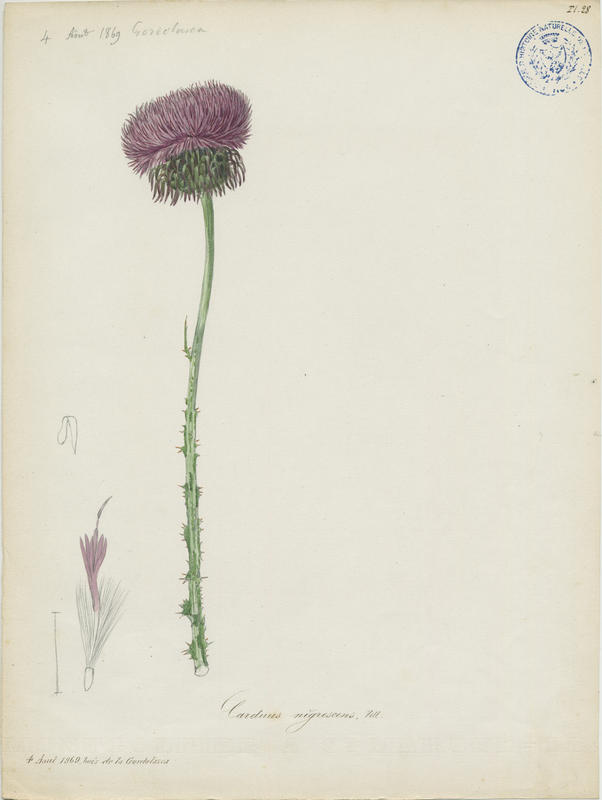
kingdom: Plantae
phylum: Tracheophyta
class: Magnoliopsida
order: Asterales
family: Asteraceae
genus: Carduus
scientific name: Carduus nigrescens
